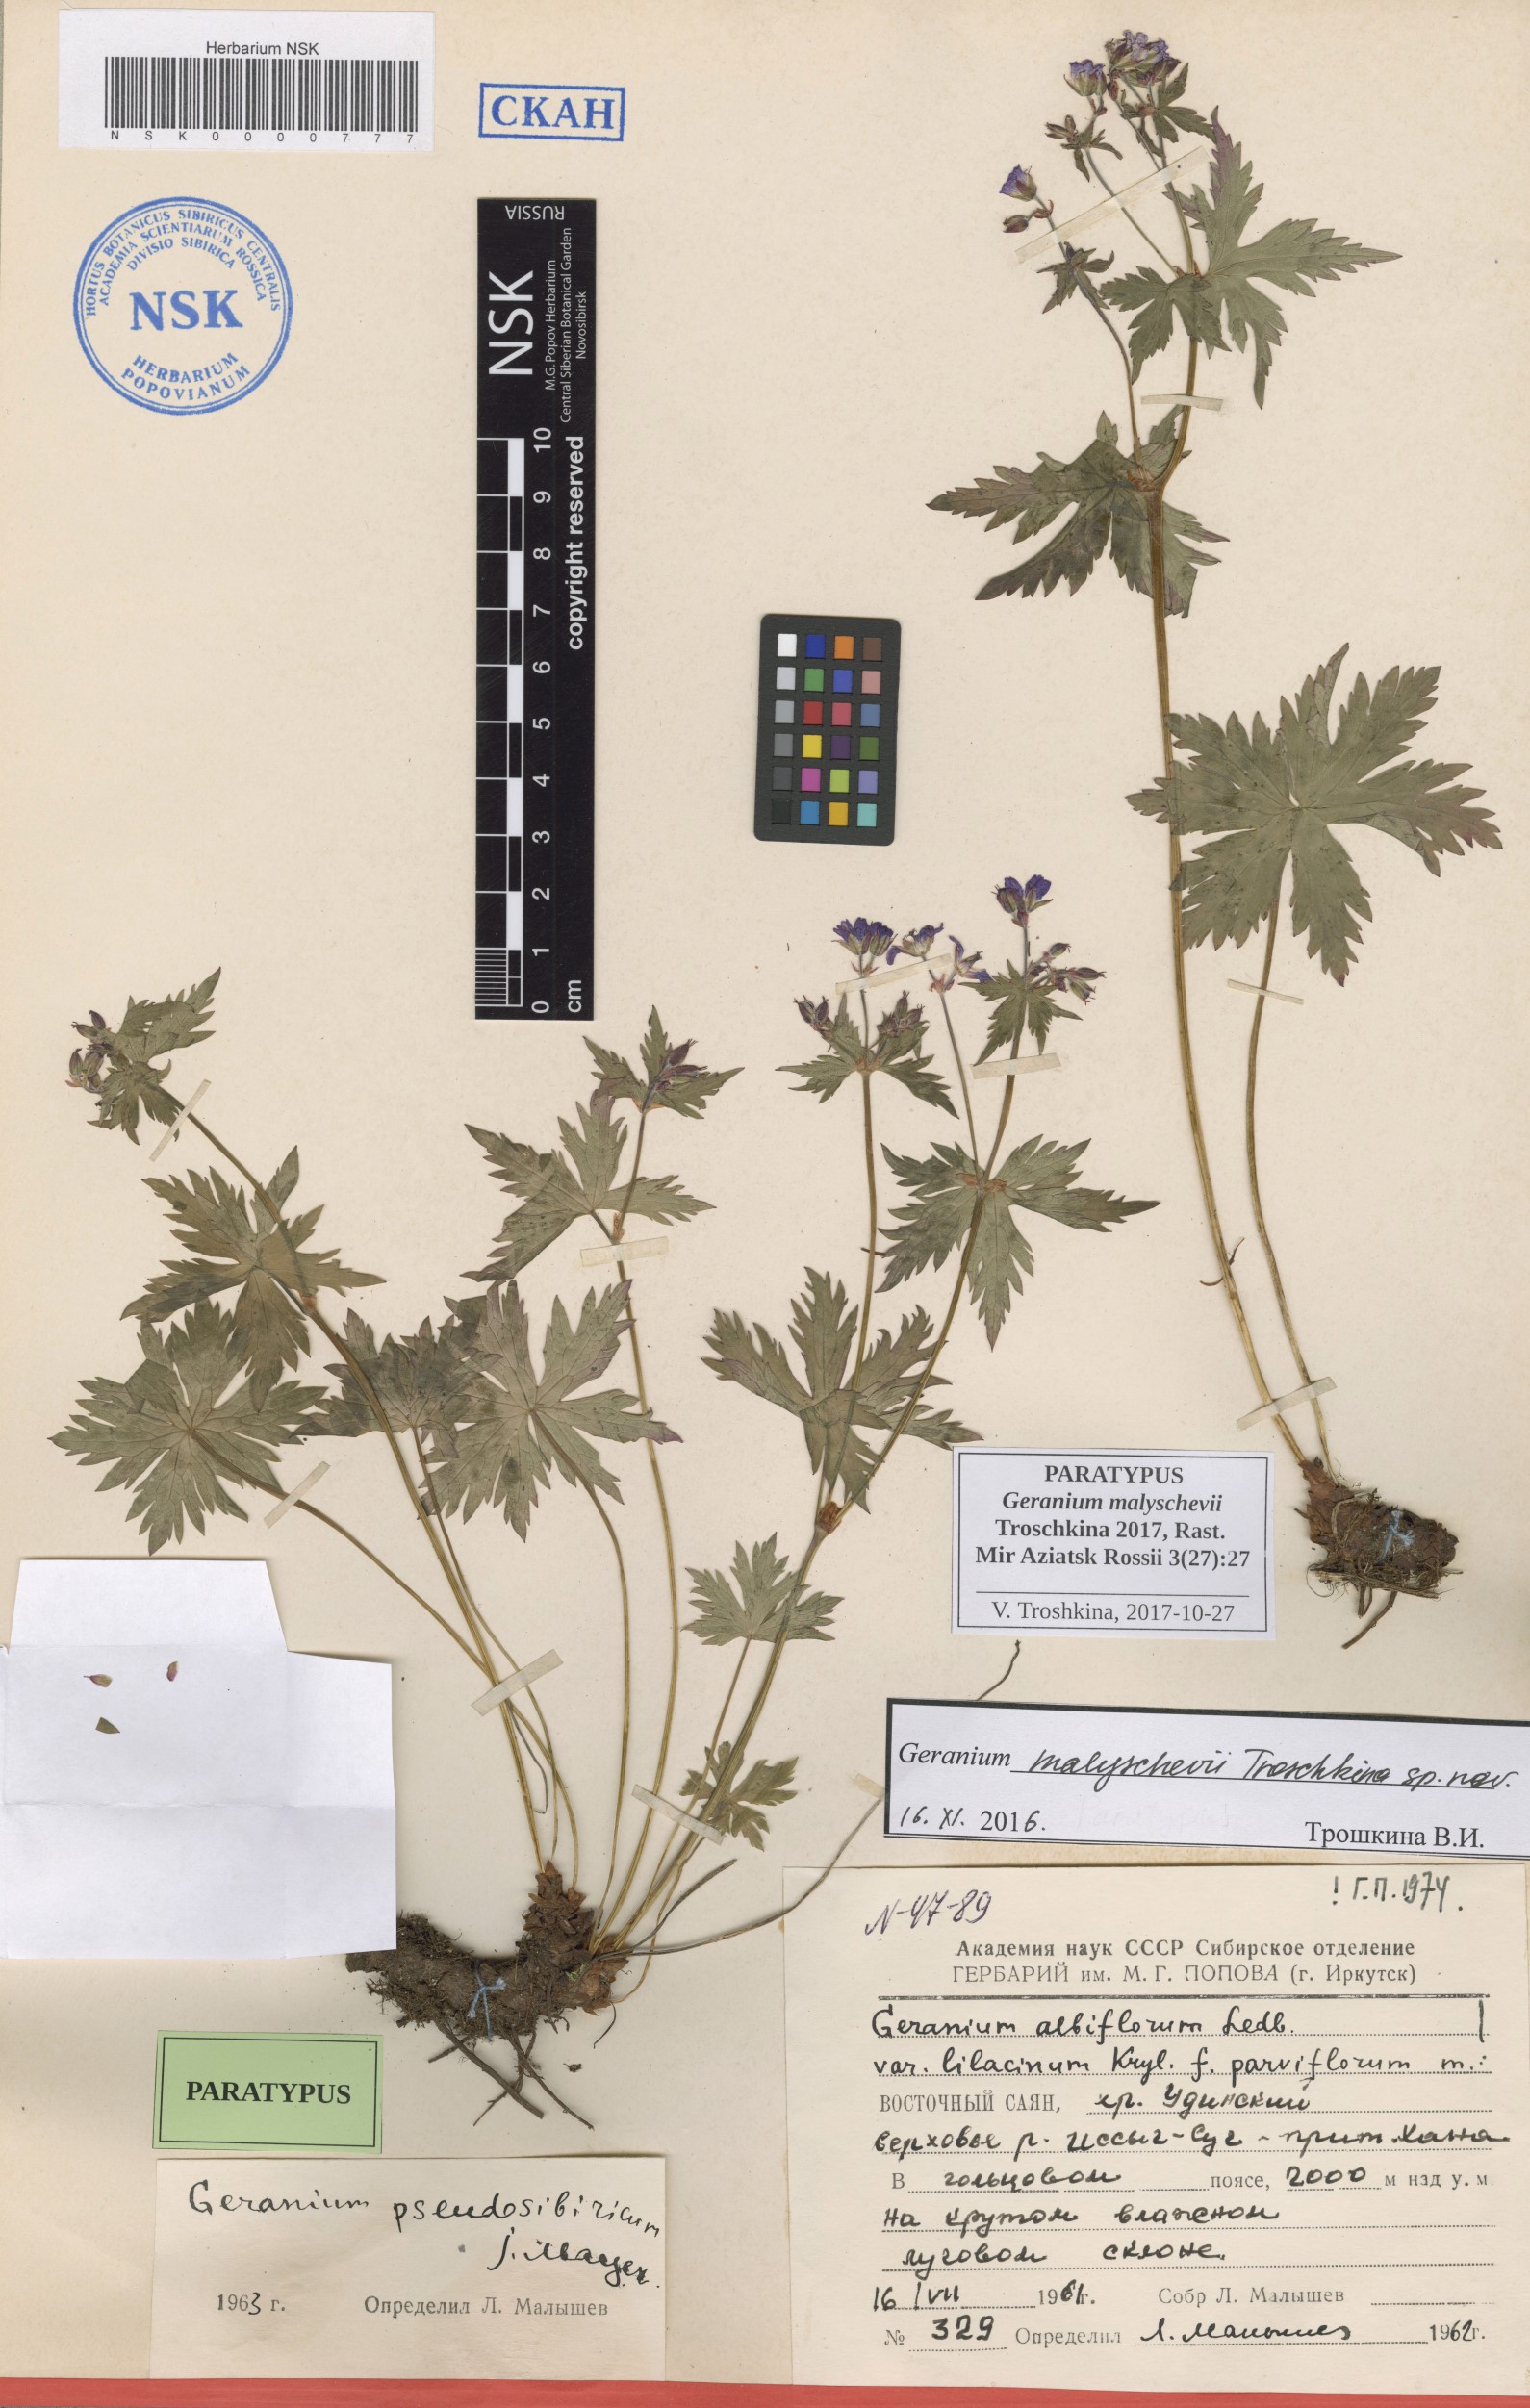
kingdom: Plantae
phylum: Tracheophyta
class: Magnoliopsida
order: Geraniales
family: Geraniaceae
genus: Geranium
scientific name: Geranium malyschevii
